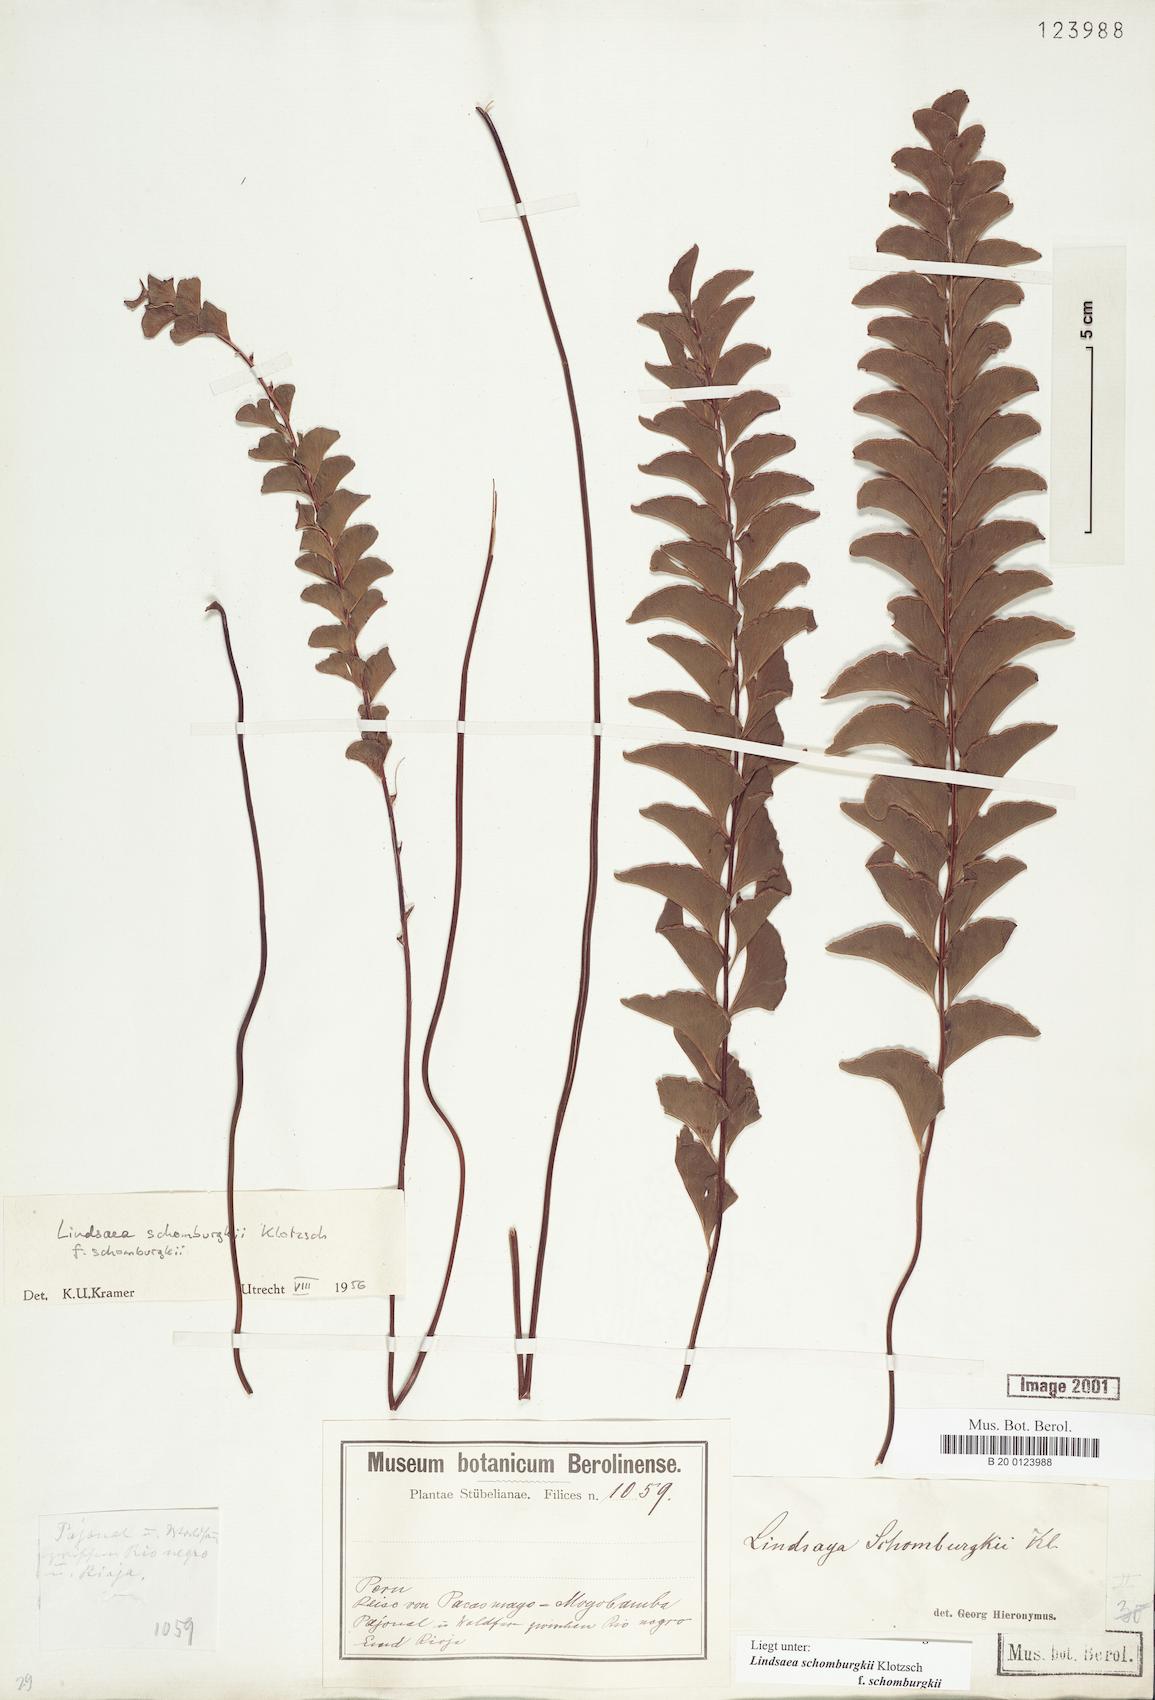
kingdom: Plantae
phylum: Tracheophyta
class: Polypodiopsida
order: Polypodiales
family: Lindsaeaceae
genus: Lindsaea
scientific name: Lindsaea schomburgkii
